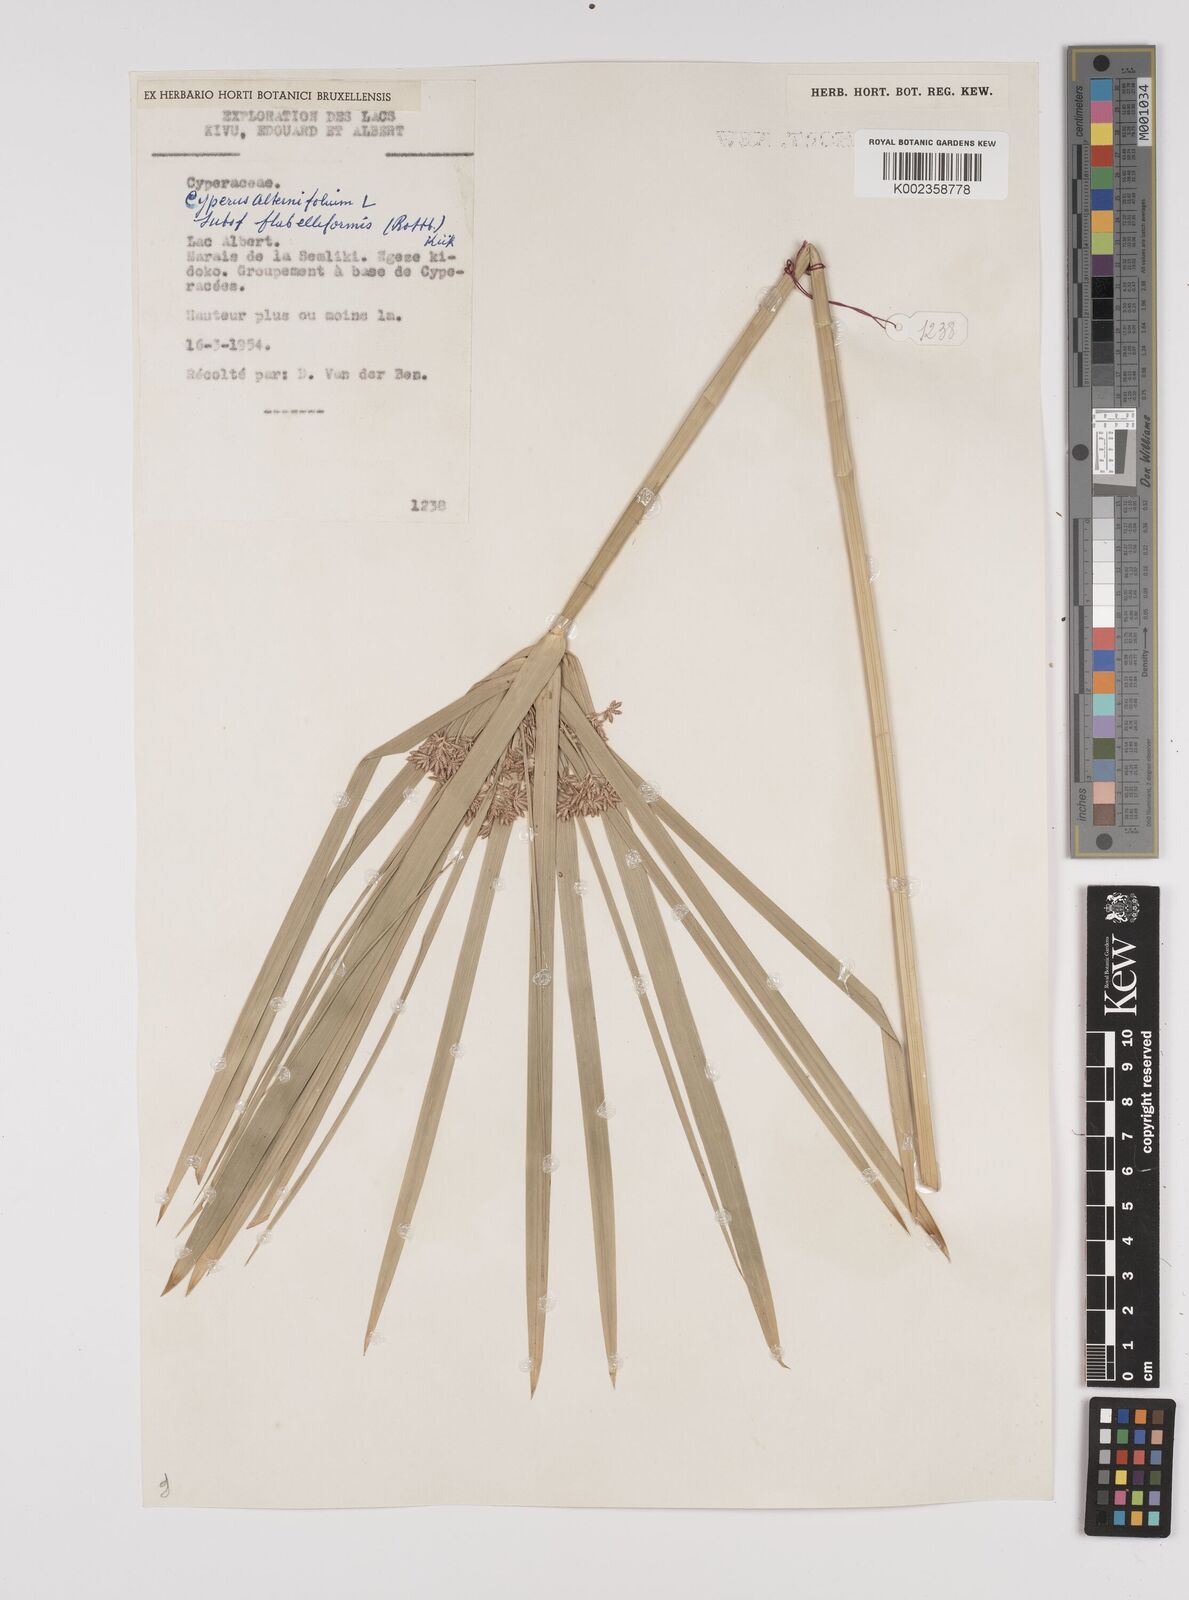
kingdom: Plantae
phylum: Tracheophyta
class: Liliopsida
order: Poales
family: Cyperaceae
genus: Cyperus
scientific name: Cyperus alternifolius
